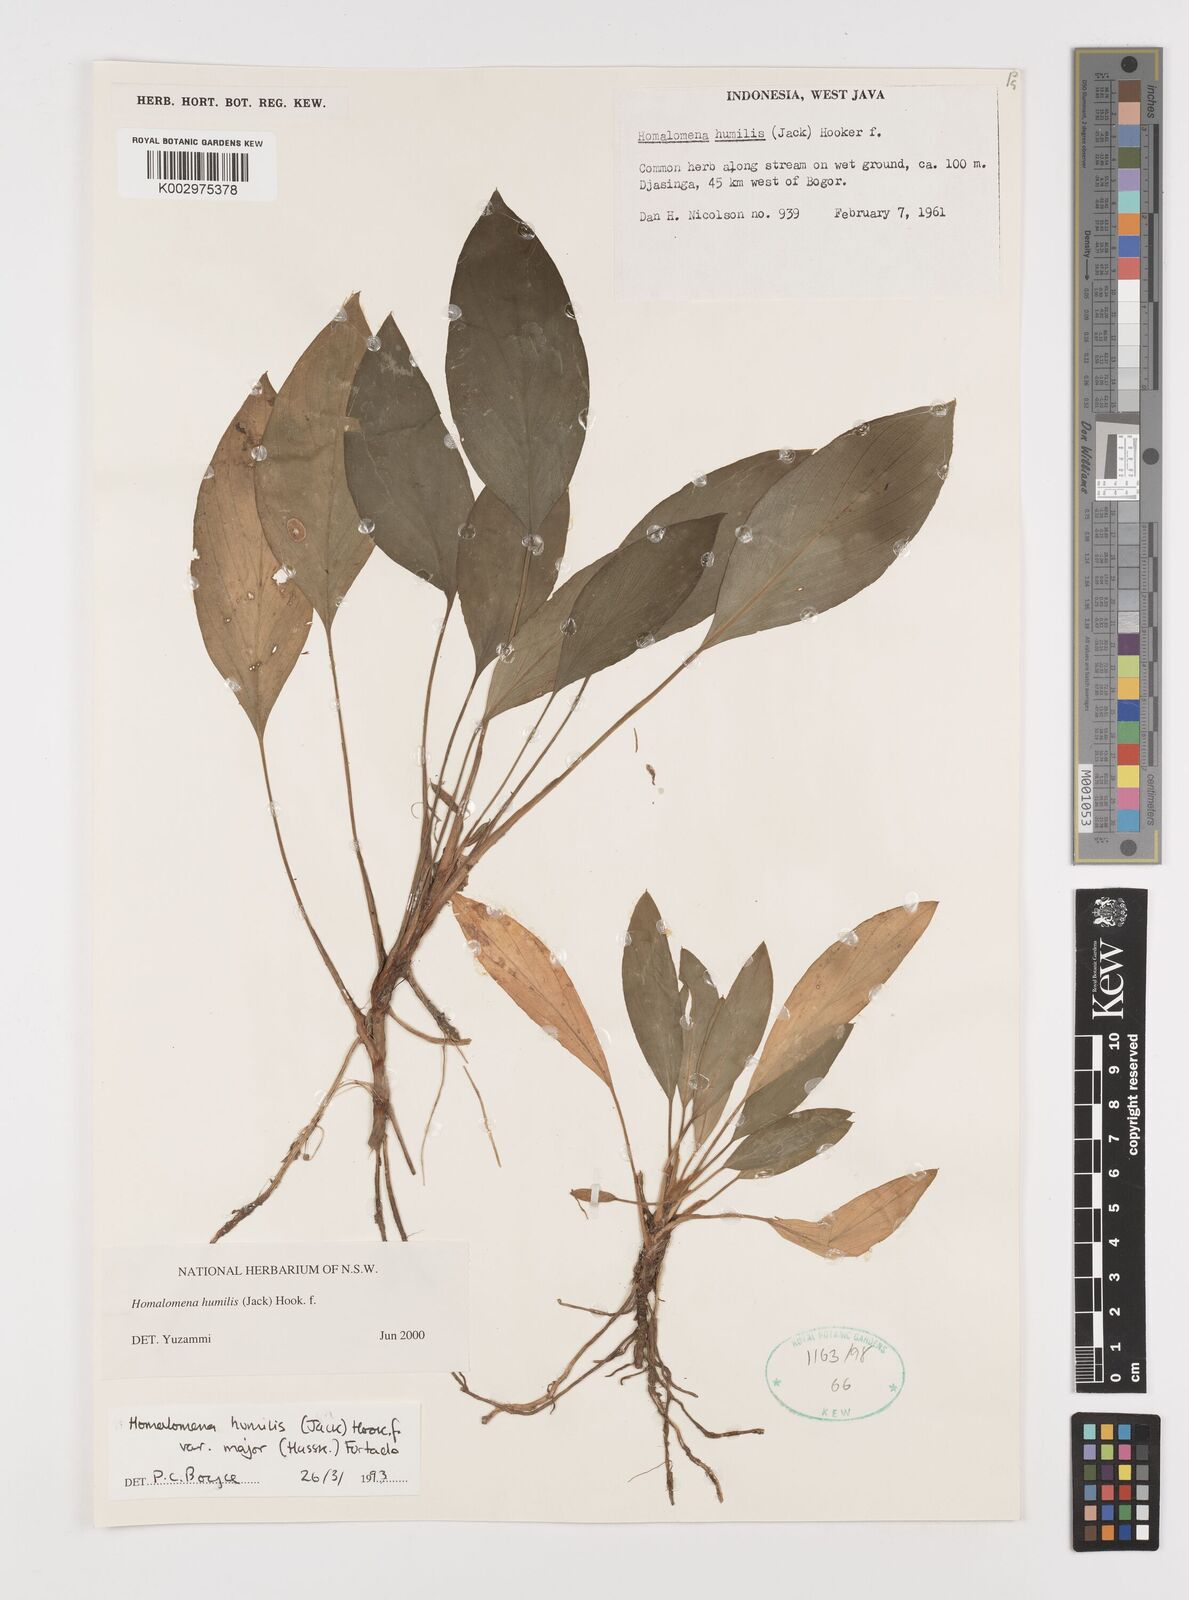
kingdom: Plantae
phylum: Tracheophyta
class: Liliopsida
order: Alismatales
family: Araceae
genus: Homalomena
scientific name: Homalomena humilis
